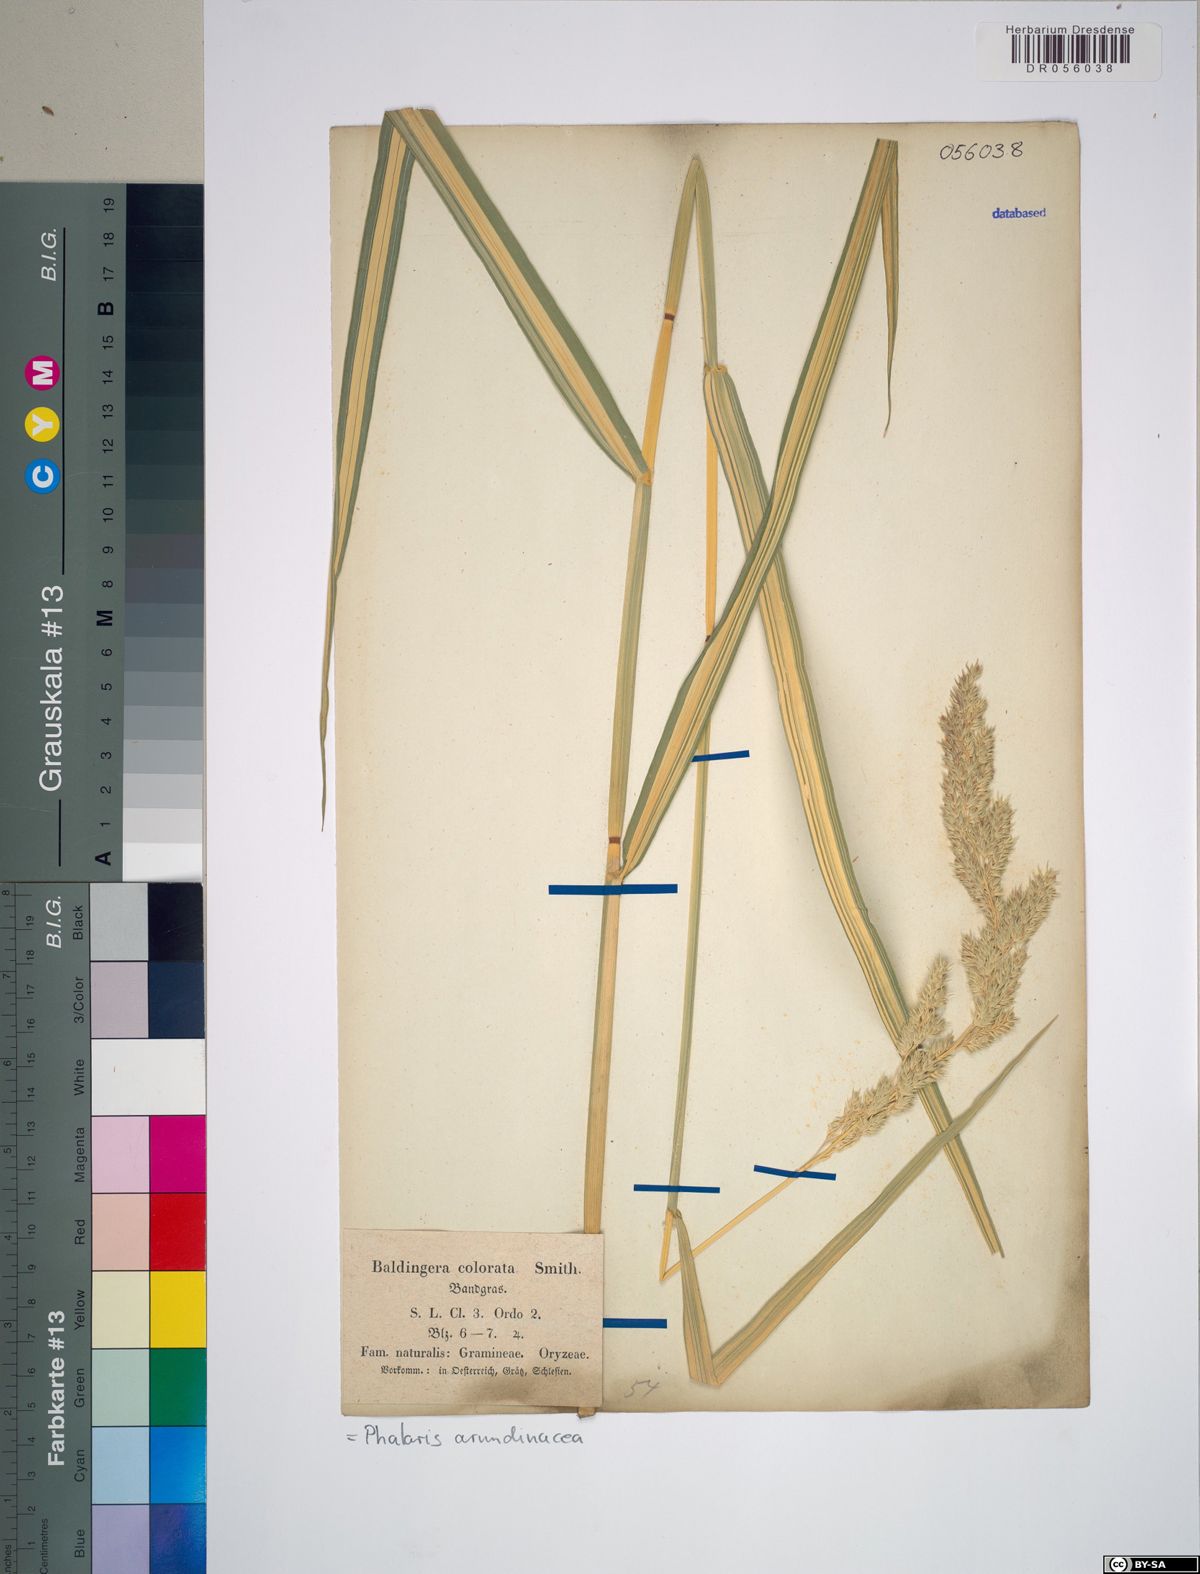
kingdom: Plantae
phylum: Tracheophyta
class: Liliopsida
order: Poales
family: Poaceae
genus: Phalaris
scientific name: Phalaris arundinacea
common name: Reed canary-grass
